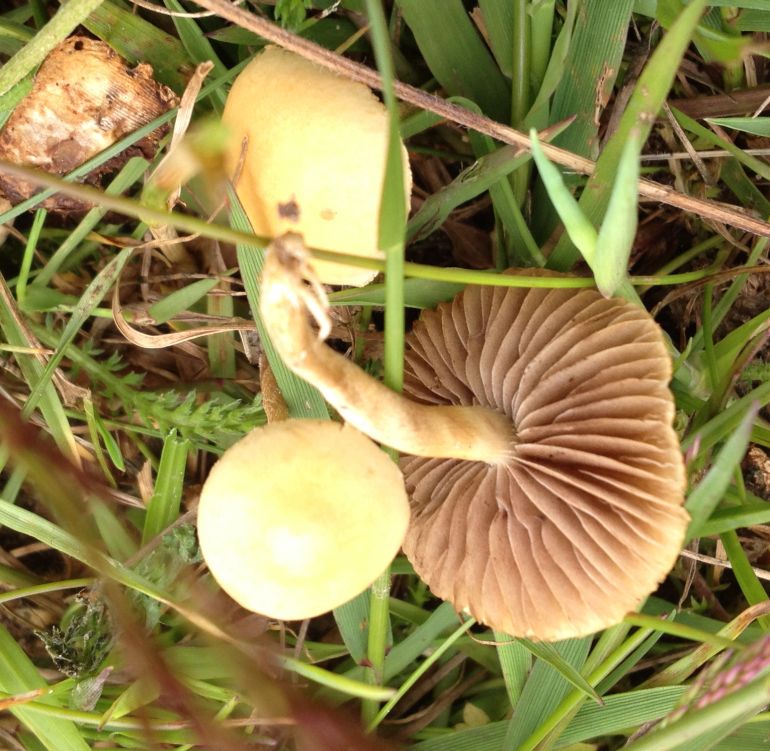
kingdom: Fungi
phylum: Basidiomycota
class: Agaricomycetes
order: Agaricales
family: Strophariaceae
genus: Agrocybe
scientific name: Agrocybe pediades
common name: almindelig agerhat
